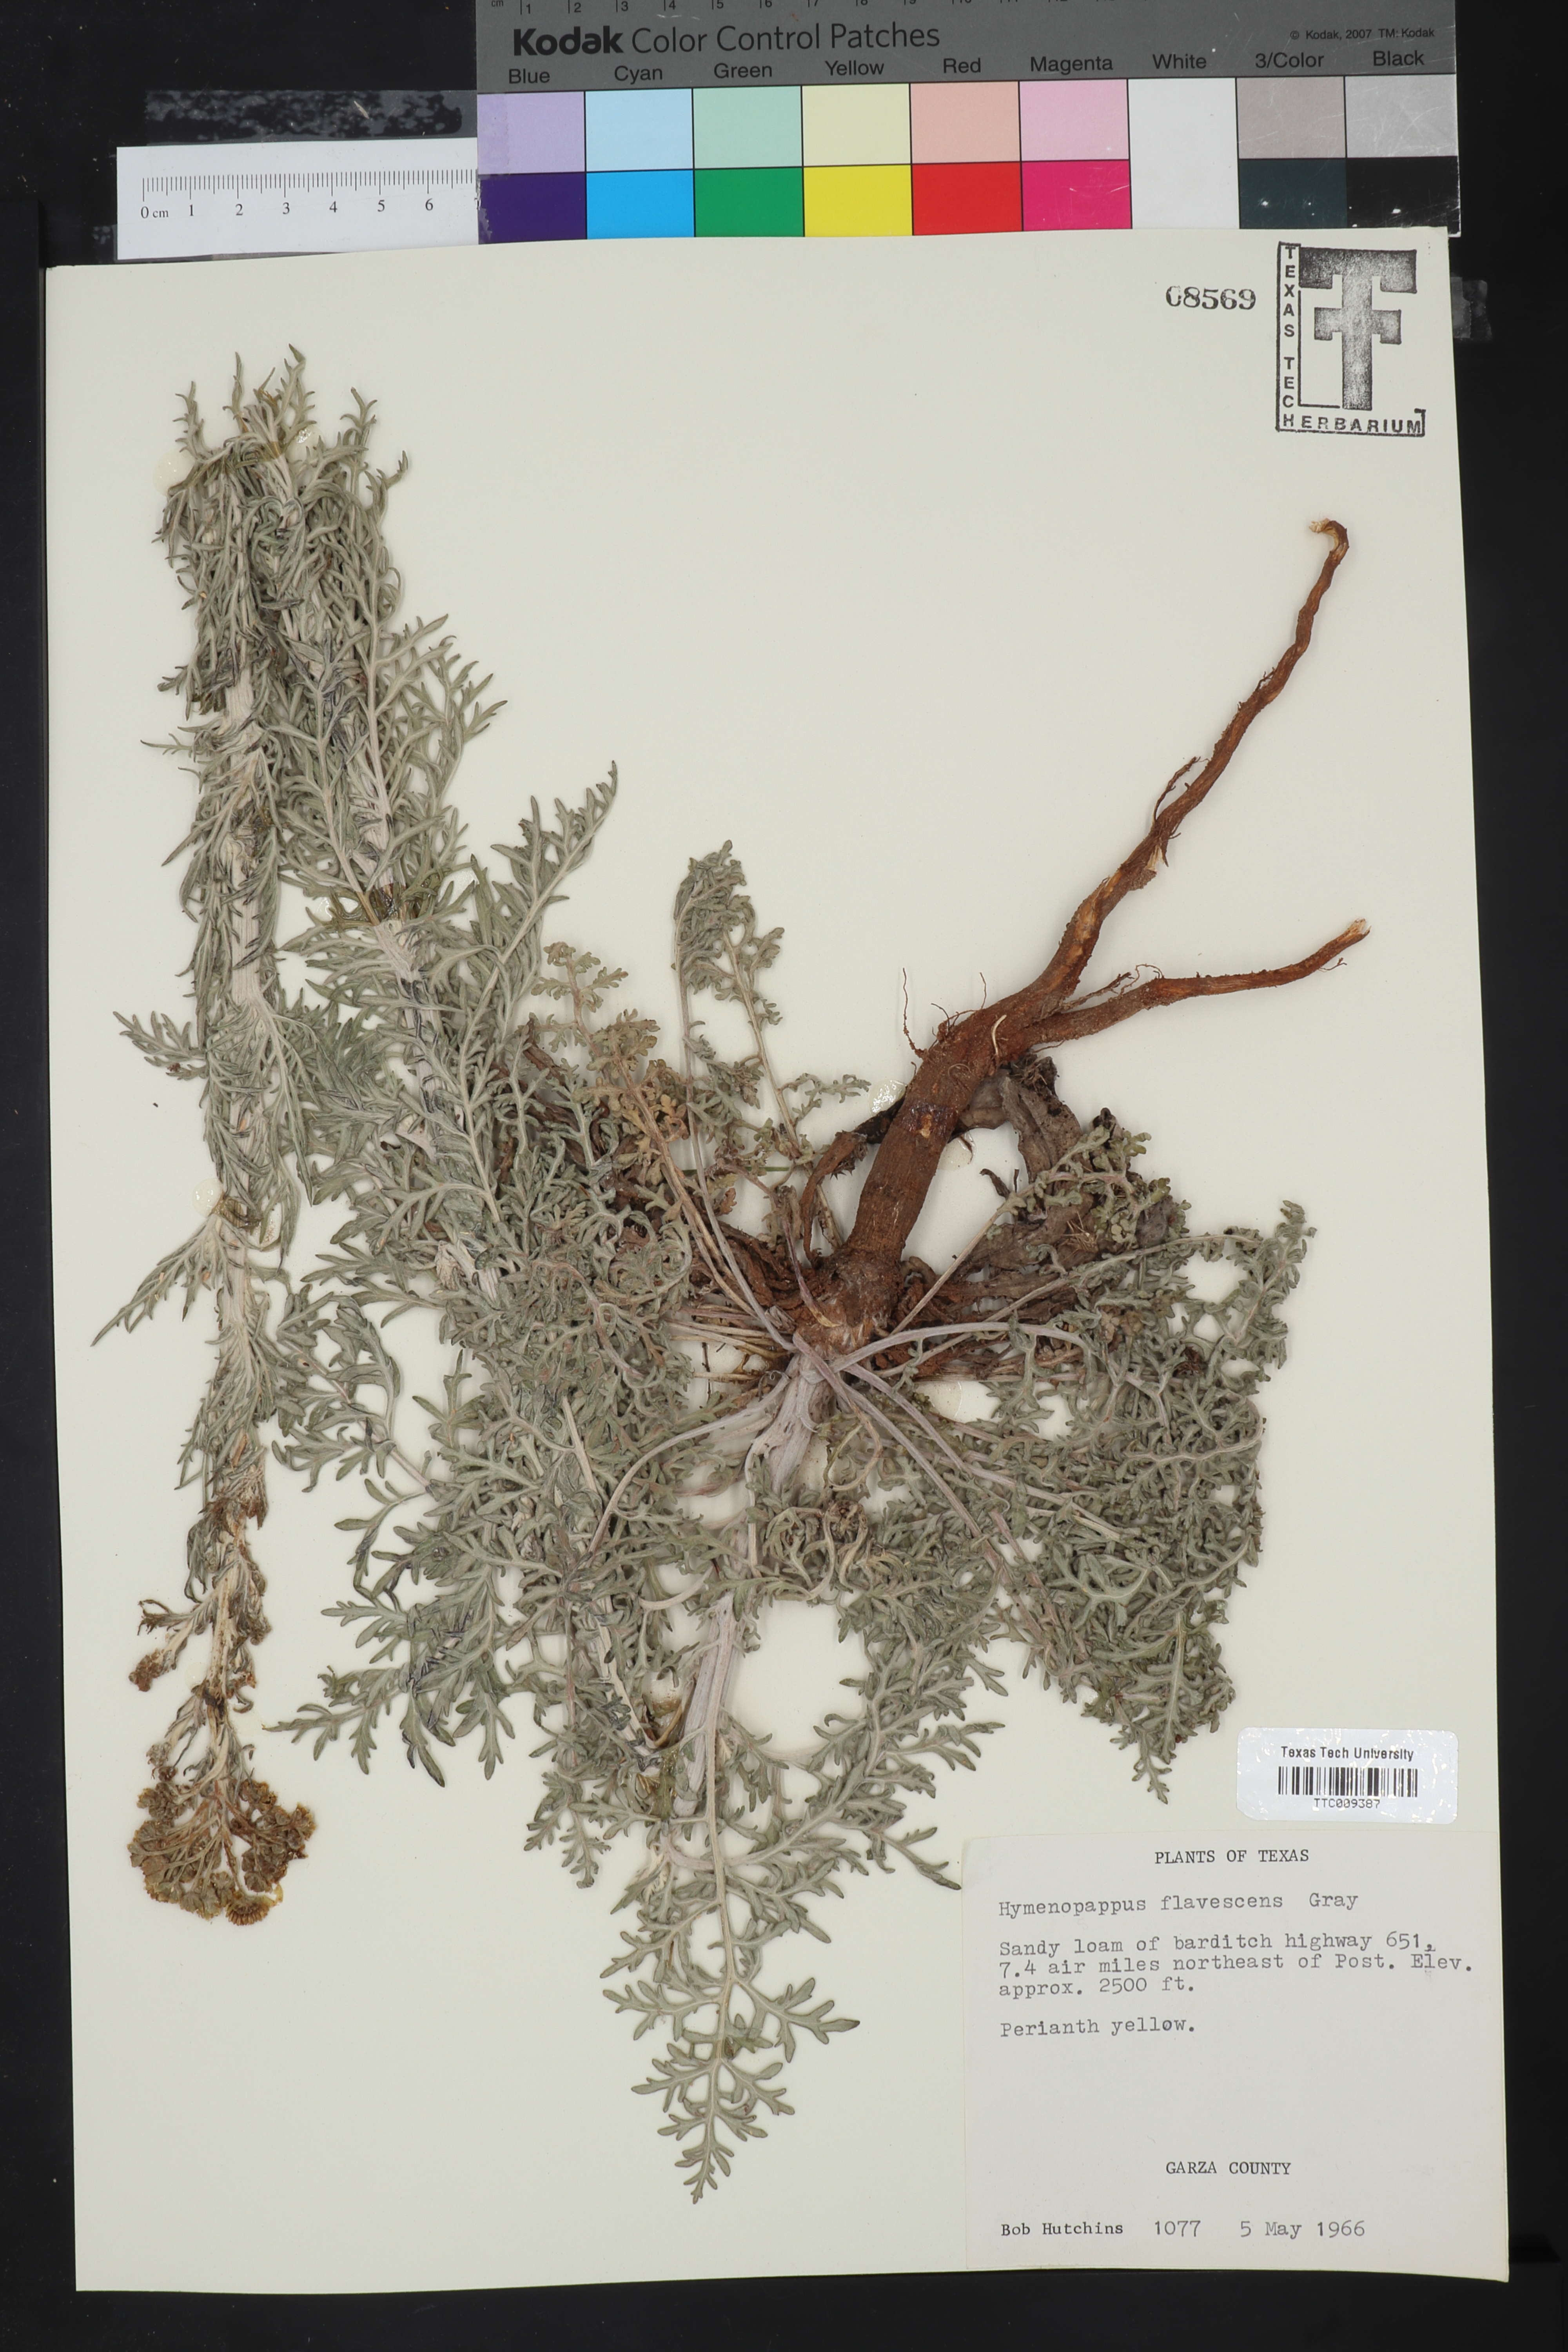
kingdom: Plantae
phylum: Tracheophyta
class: Magnoliopsida
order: Asterales
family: Asteraceae
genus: Hymenopappus
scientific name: Hymenopappus flavescens
